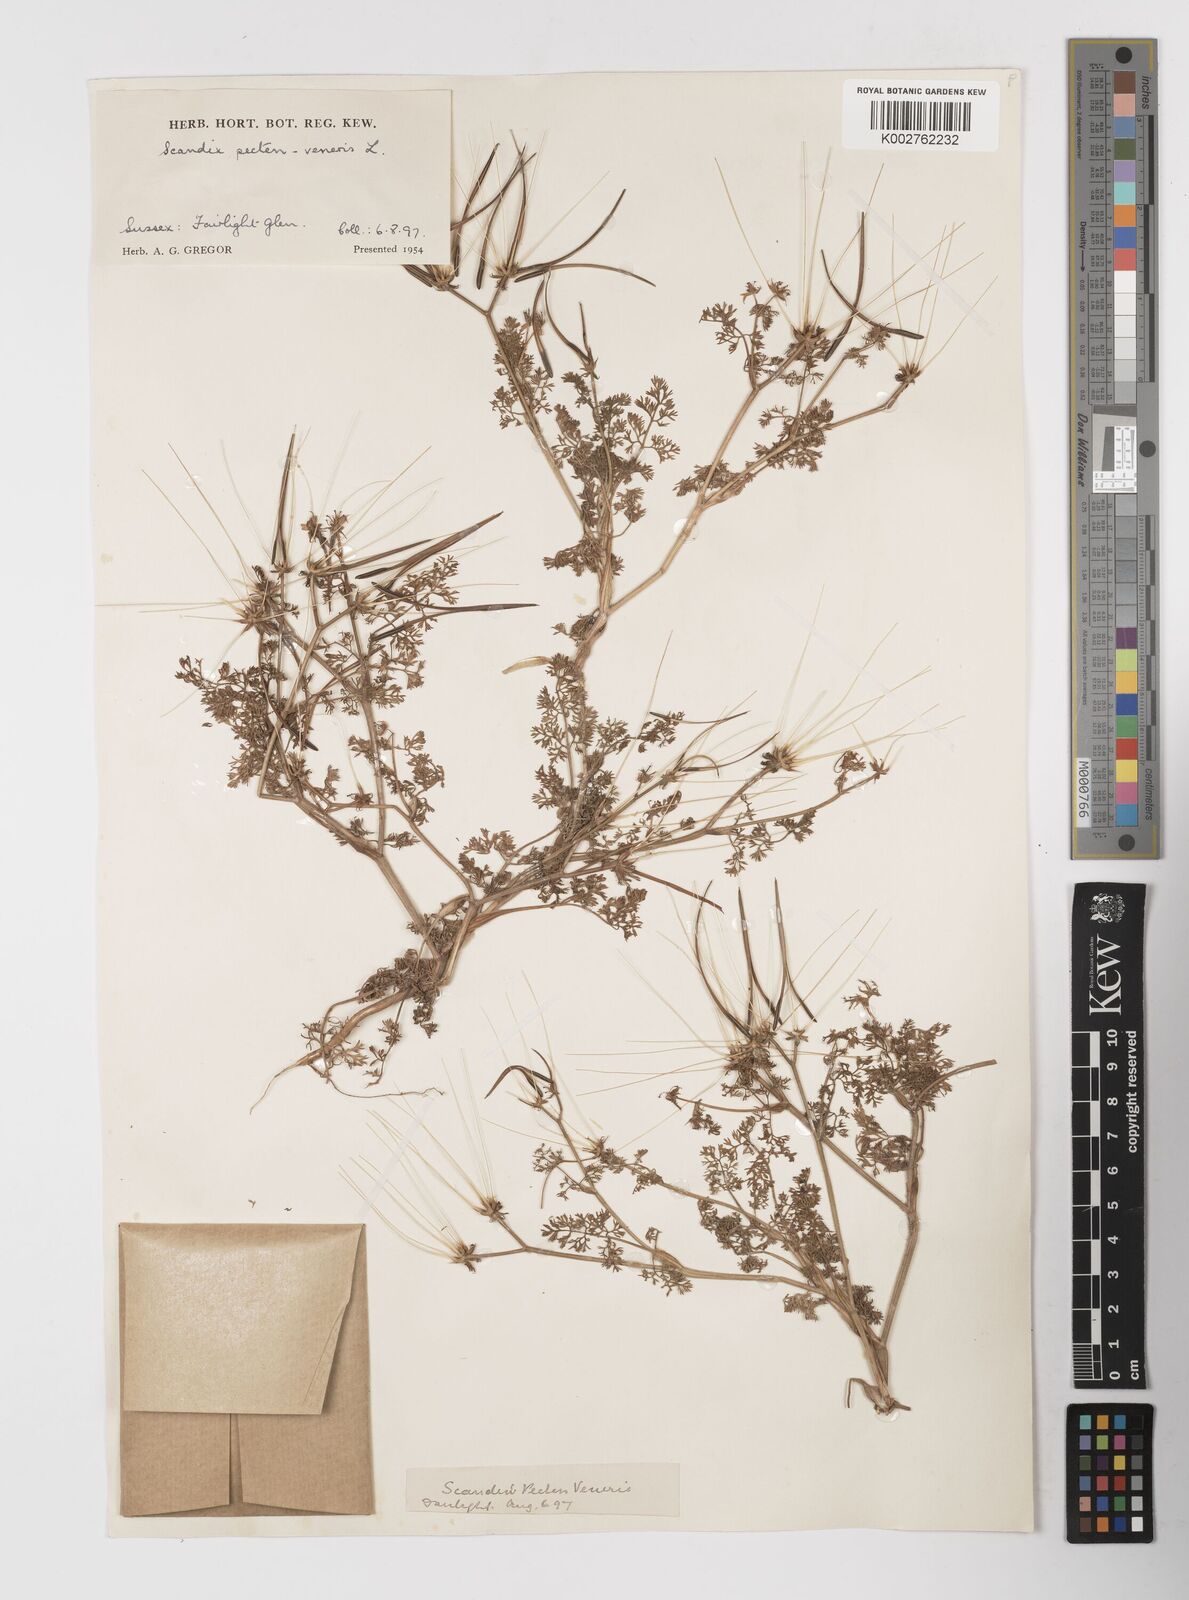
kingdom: Plantae
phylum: Tracheophyta
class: Magnoliopsida
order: Apiales
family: Apiaceae
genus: Scandix
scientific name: Scandix pecten-veneris
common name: Shepherd's-needle
